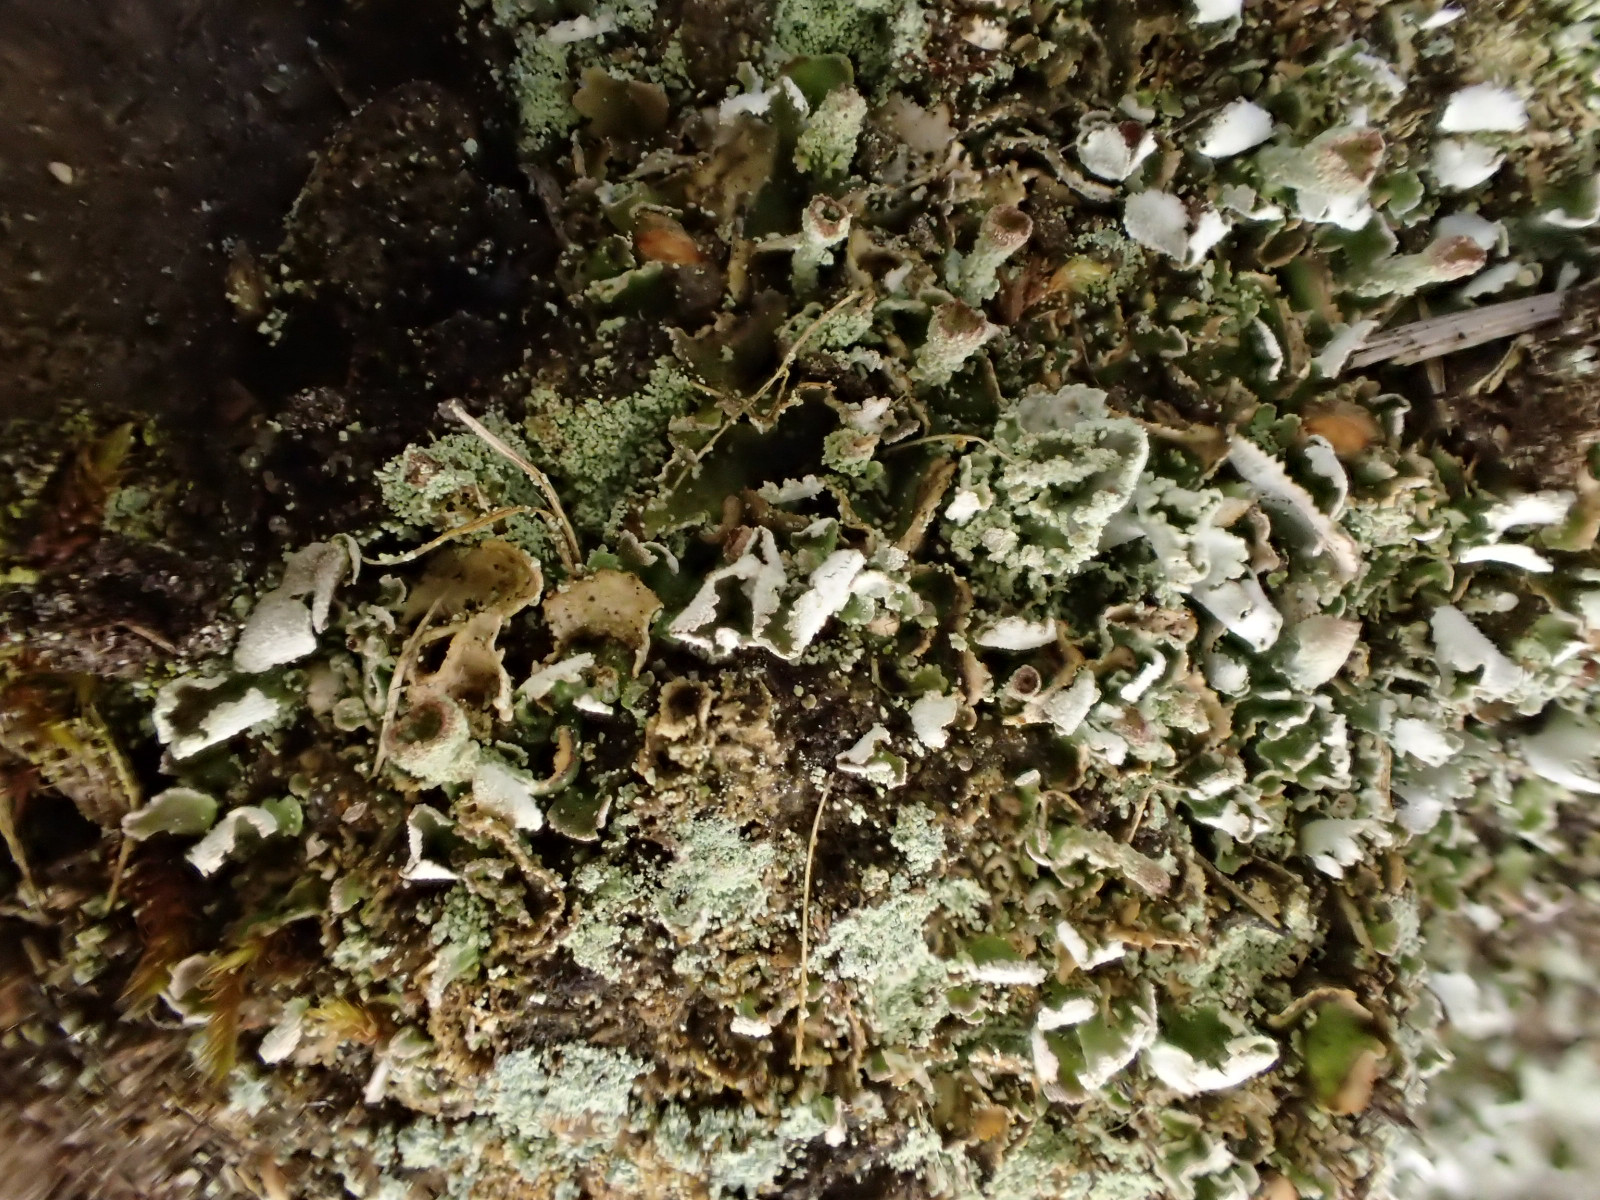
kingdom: Fungi
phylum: Ascomycota
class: Lecanoromycetes
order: Lecanorales
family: Cladoniaceae
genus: Cladonia
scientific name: Cladonia humilis
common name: lav bægerlav
